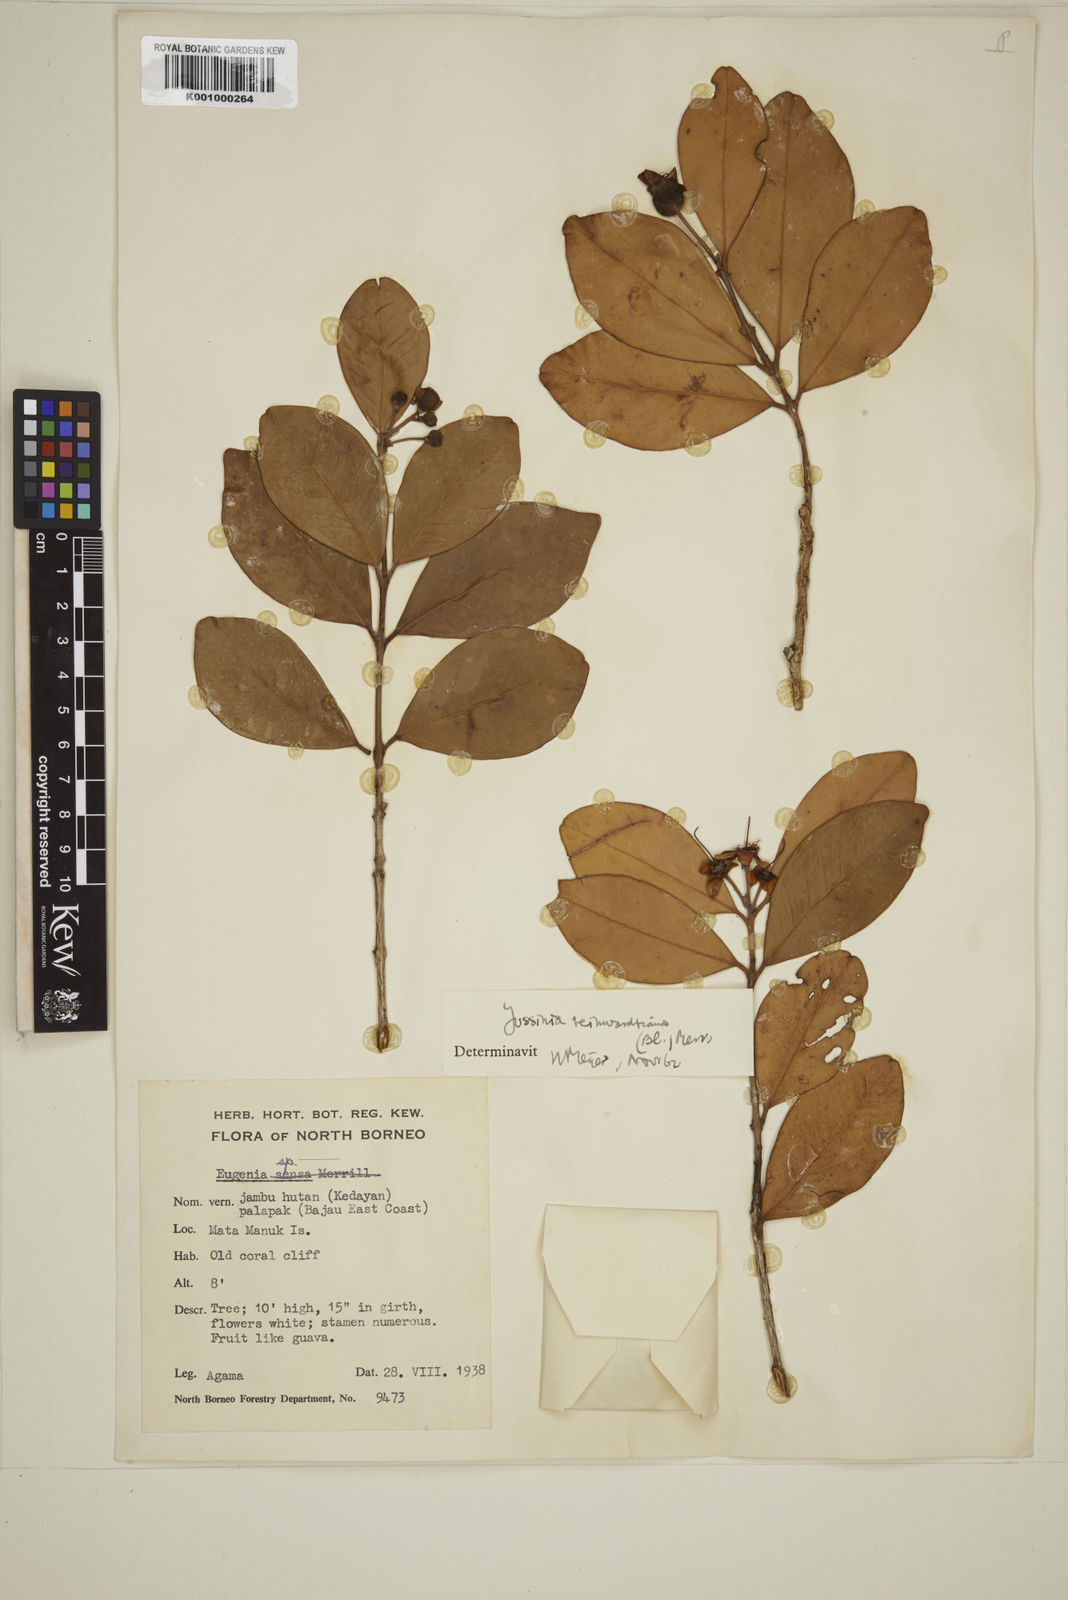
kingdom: Plantae
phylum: Tracheophyta
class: Magnoliopsida
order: Myrtales
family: Myrtaceae
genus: Eugenia
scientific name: Eugenia reinwardtiana
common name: Cedar bay-cherry
